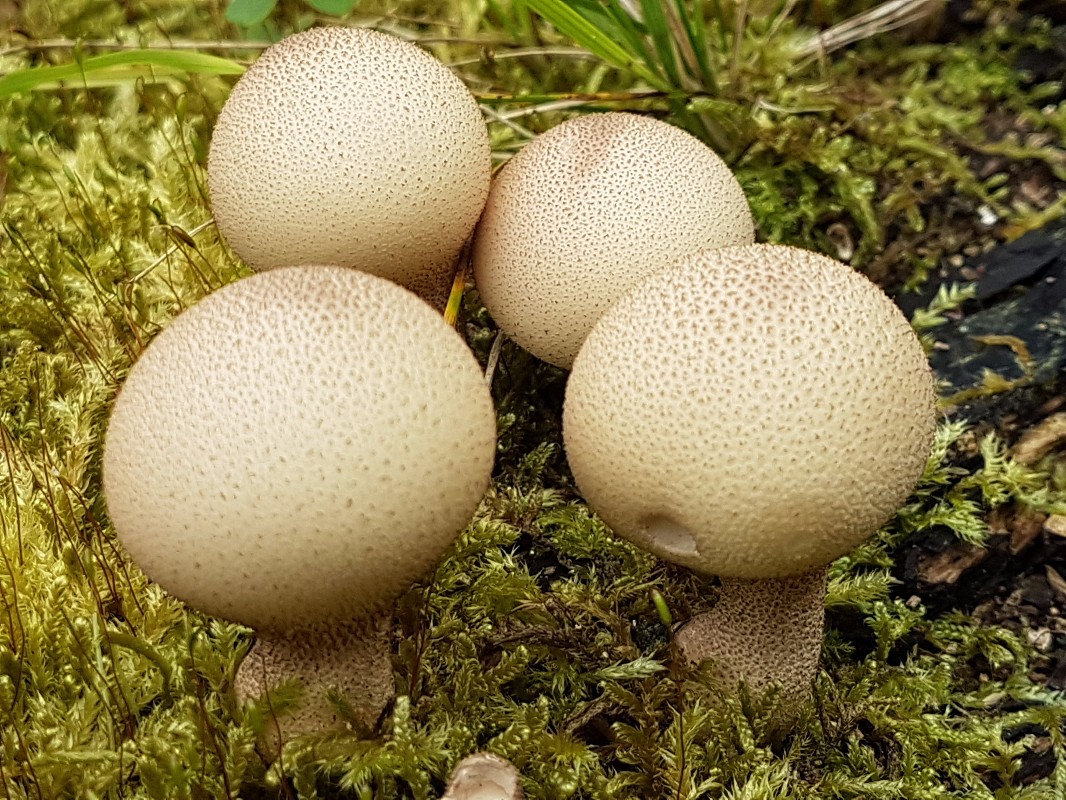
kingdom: Fungi
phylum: Basidiomycota
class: Agaricomycetes
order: Agaricales
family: Lycoperdaceae
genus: Apioperdon
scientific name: Apioperdon pyriforme
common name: pære-støvbold
